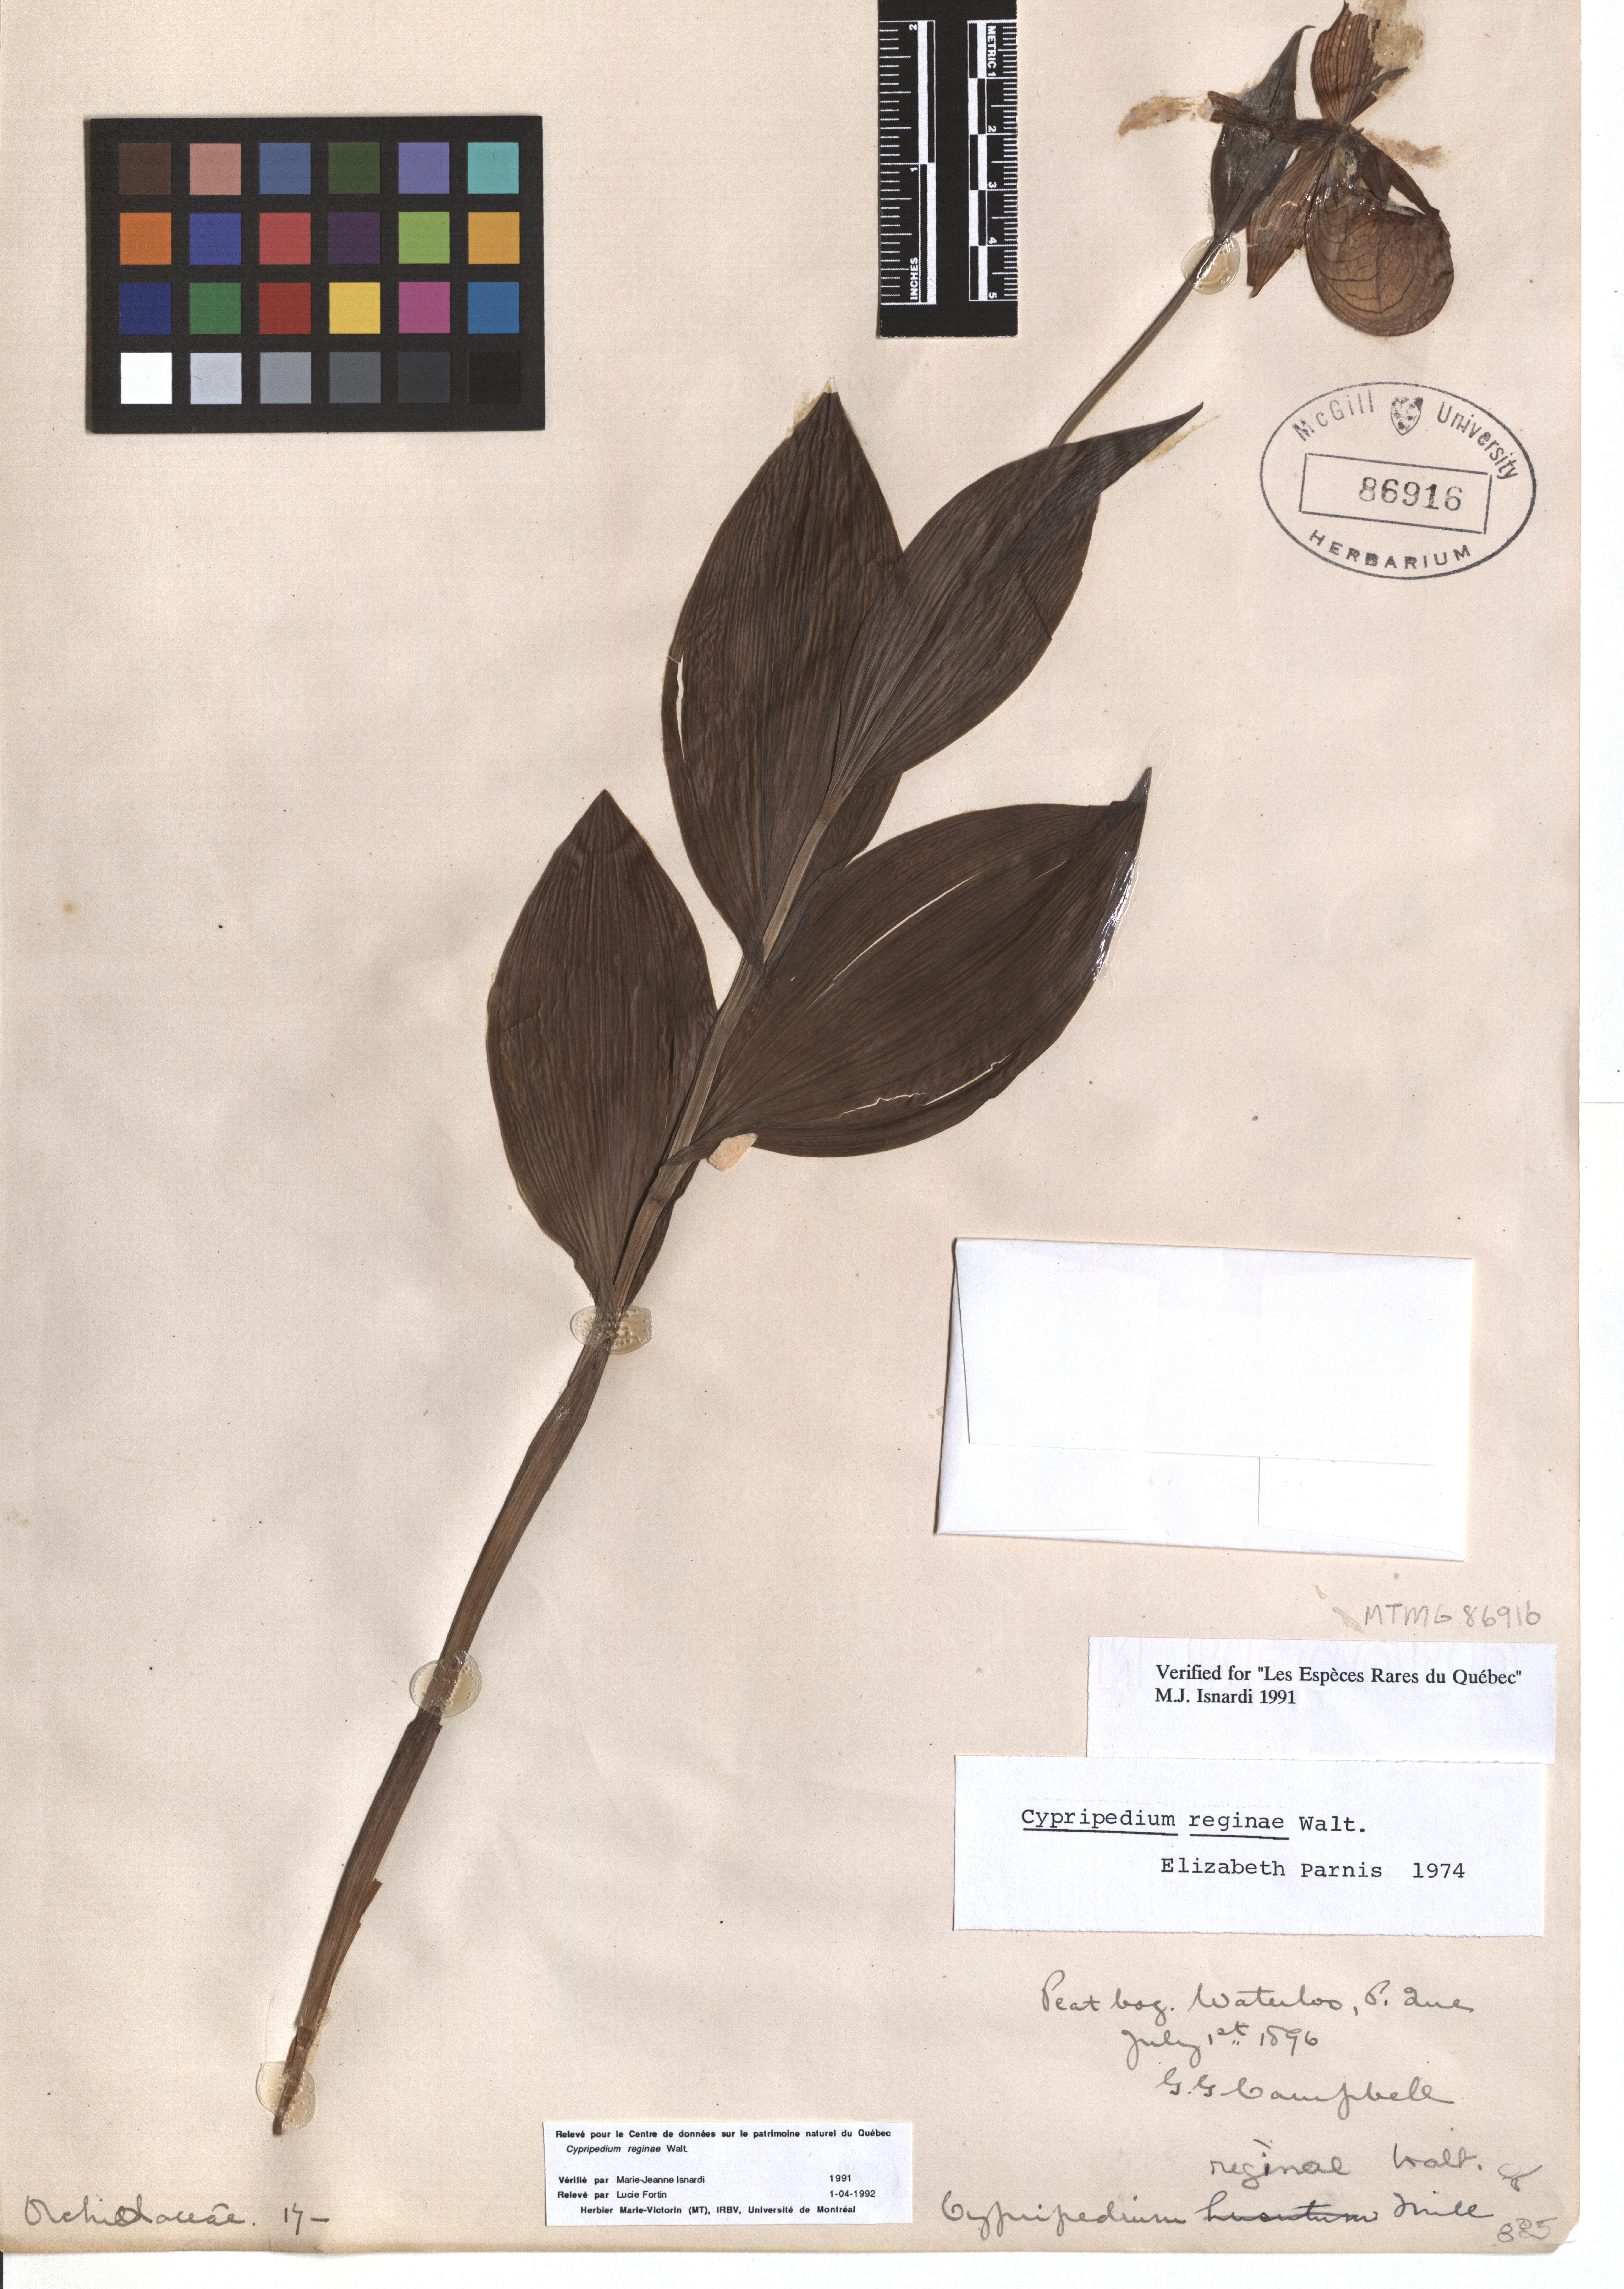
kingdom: Plantae
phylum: Tracheophyta
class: Liliopsida
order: Asparagales
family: Orchidaceae
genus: Cypripedium
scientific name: Cypripedium reginae
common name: Queen lady's-slipper
